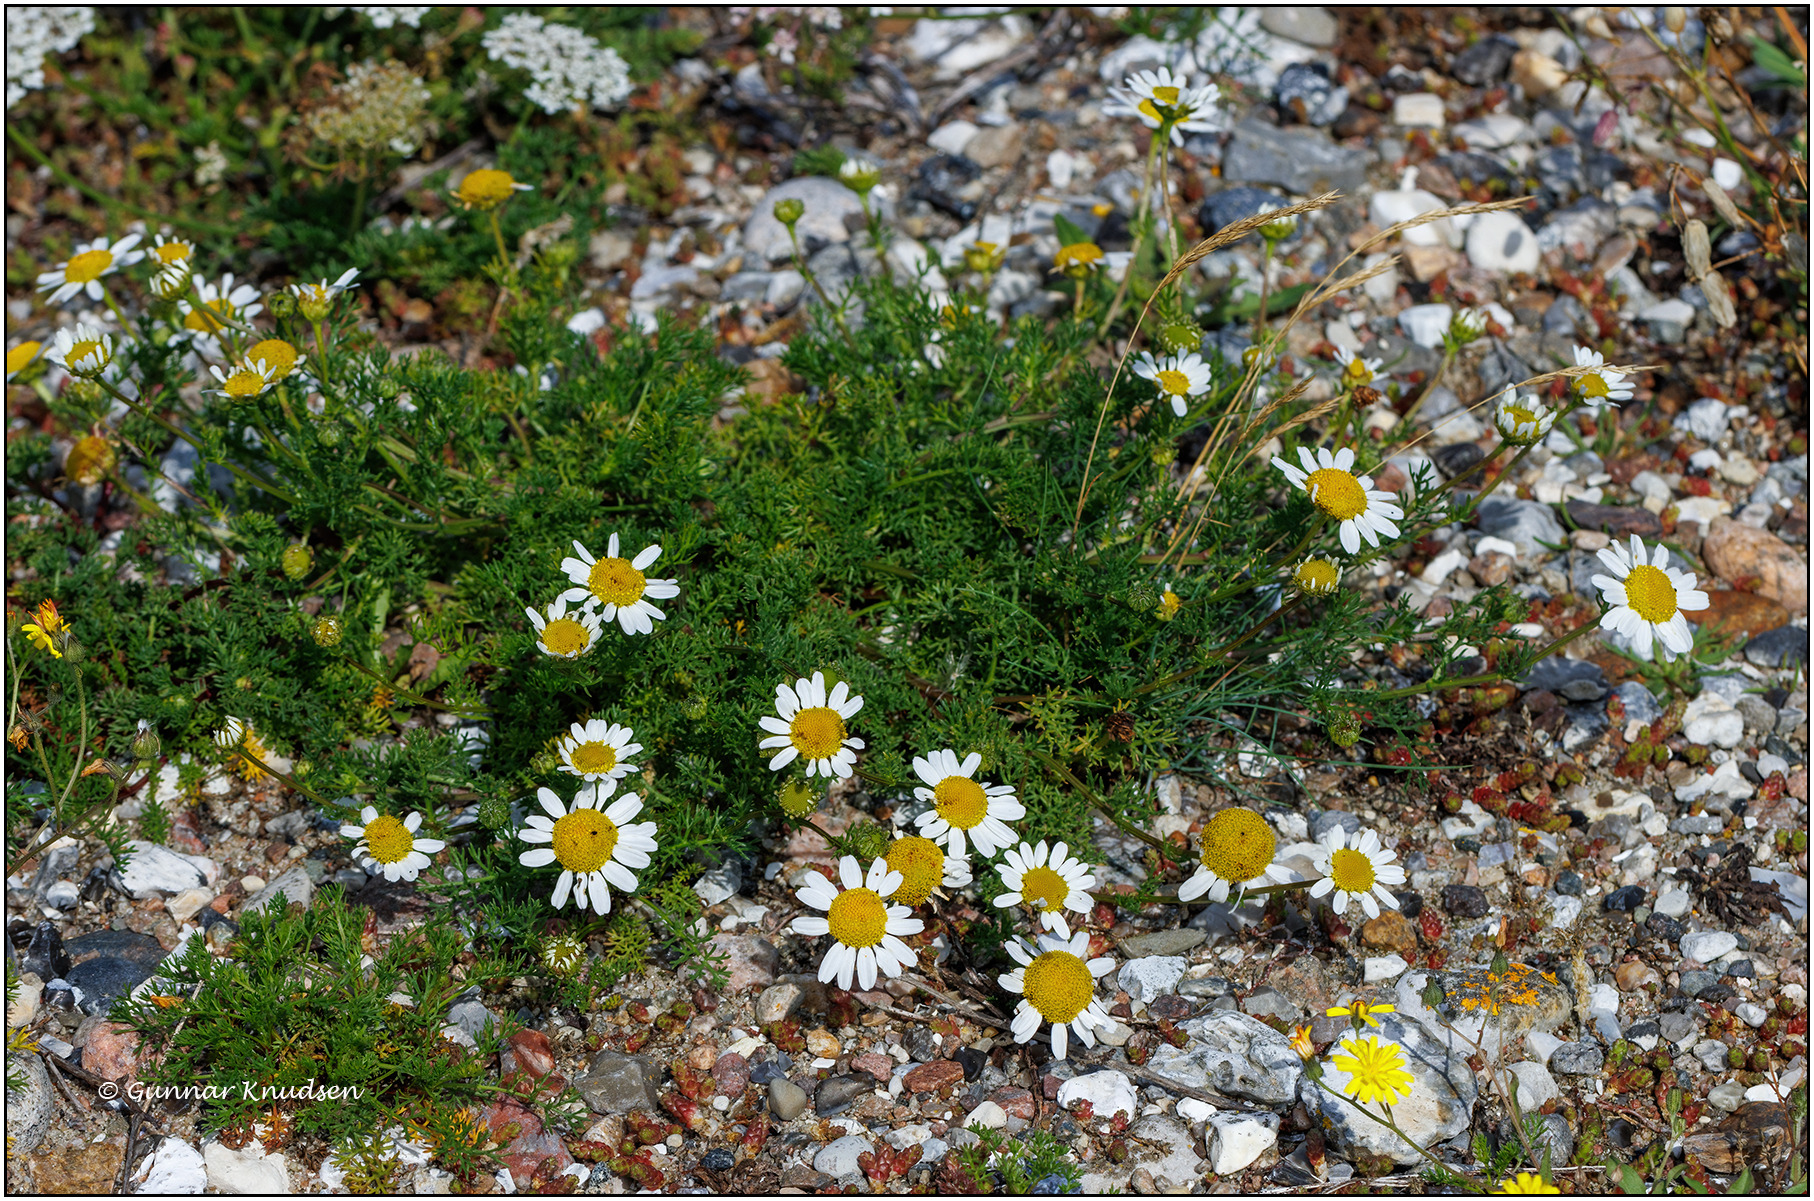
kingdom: Plantae
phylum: Tracheophyta
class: Magnoliopsida
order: Asterales
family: Asteraceae
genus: Tripleurospermum
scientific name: Tripleurospermum maritimum
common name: Strand-kamille
